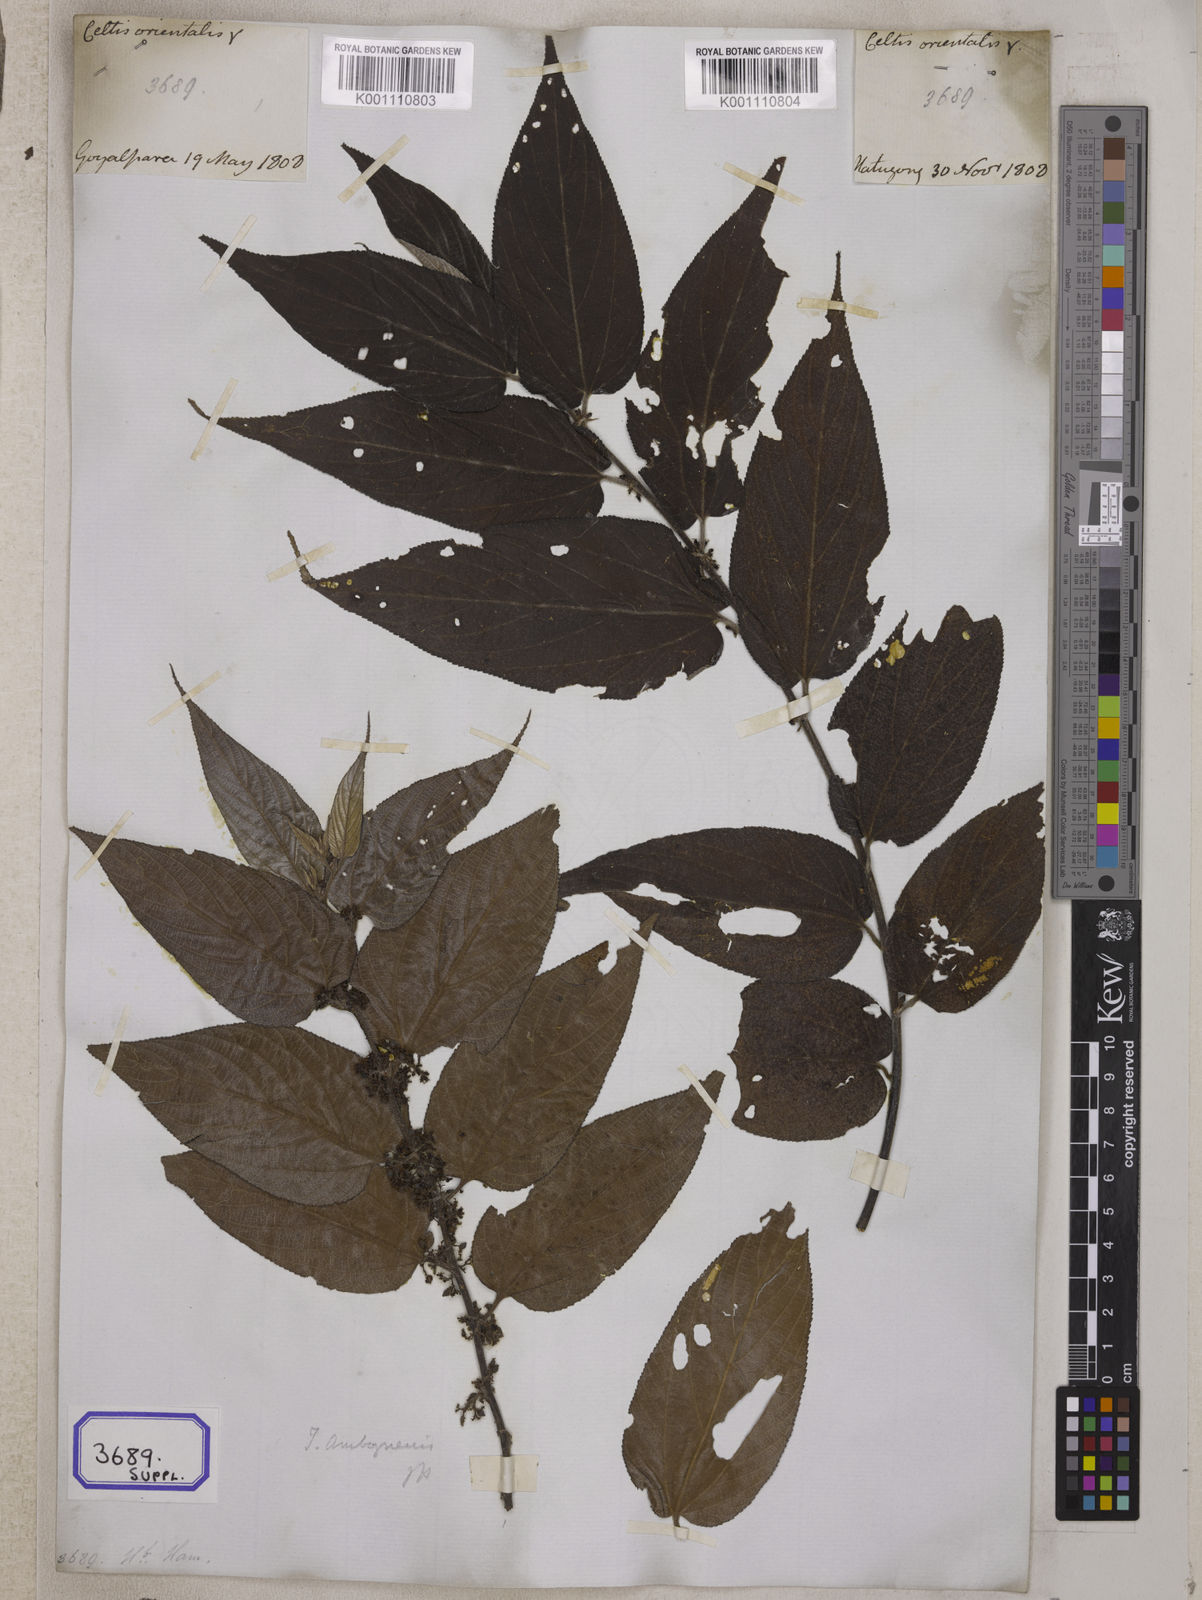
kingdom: Plantae
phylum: Tracheophyta
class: Magnoliopsida
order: Rosales
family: Cannabaceae
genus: Trema
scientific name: Trema orientale
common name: Indian charcoal tree
